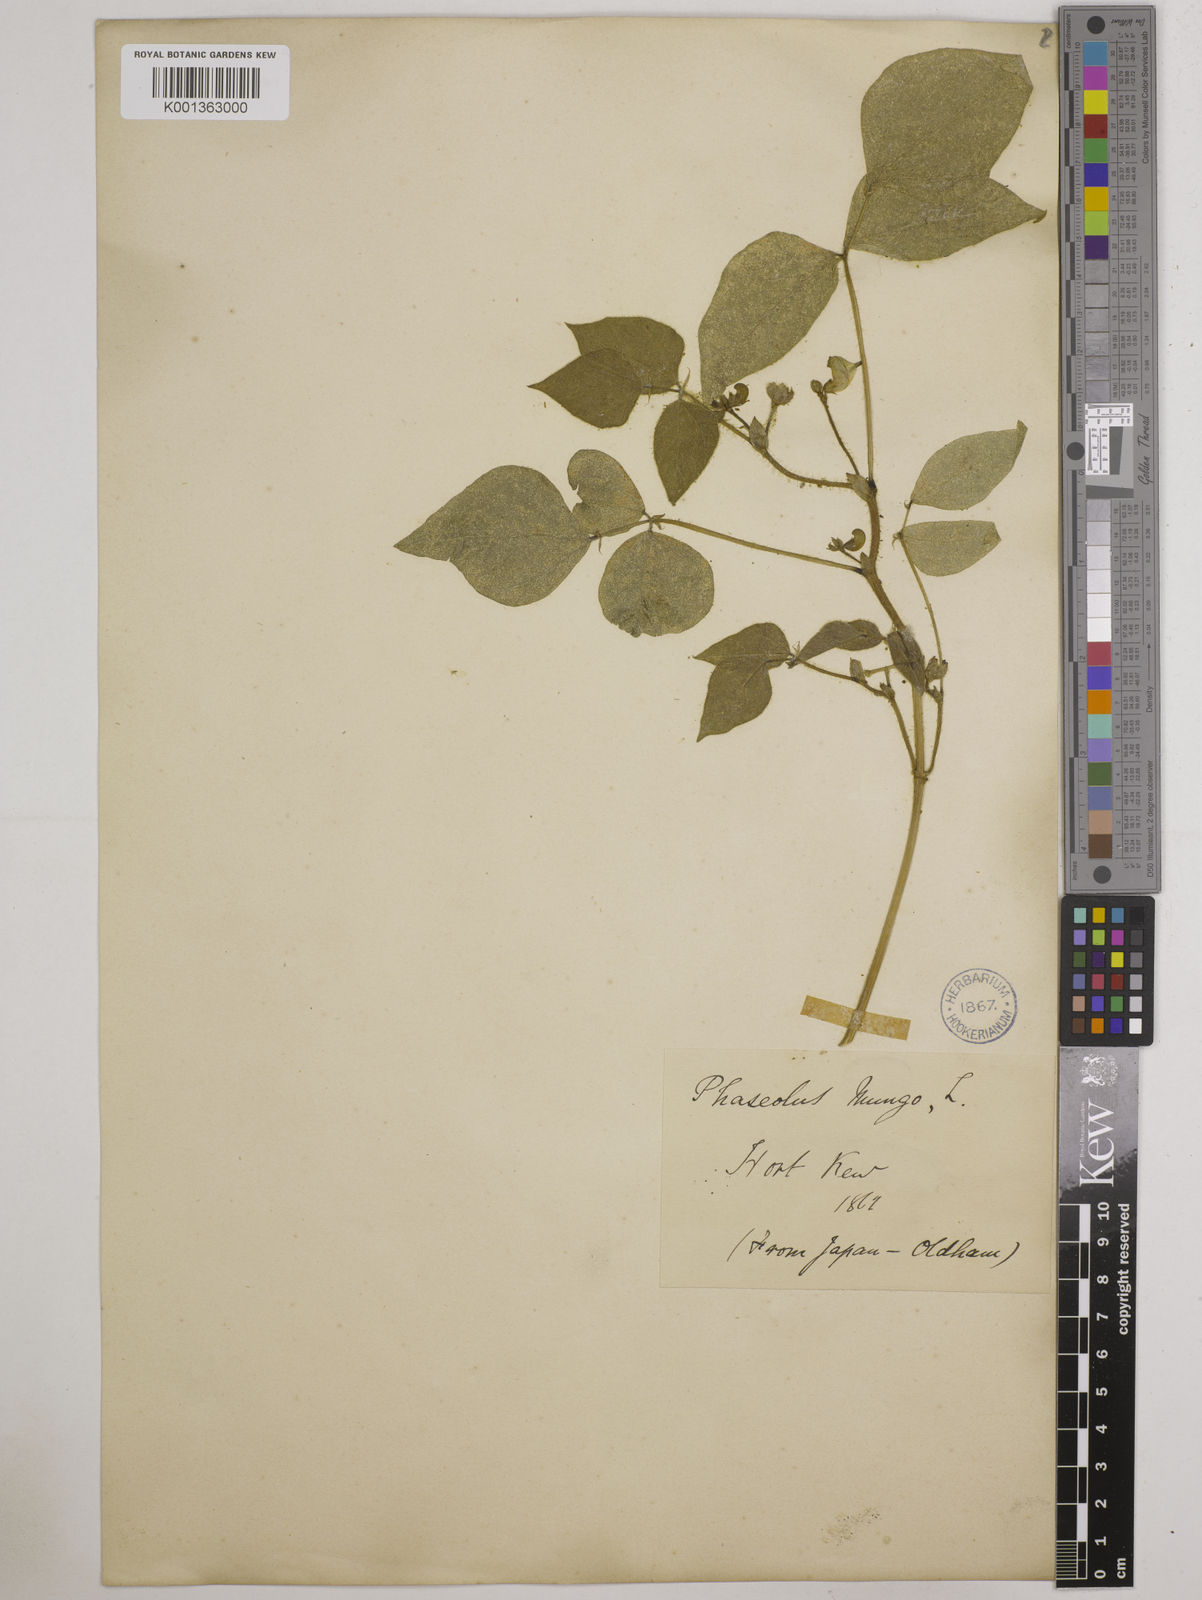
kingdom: Plantae
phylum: Tracheophyta
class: Magnoliopsida
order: Fabales
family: Fabaceae
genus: Vigna
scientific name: Vigna radiata
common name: Mung-bean
